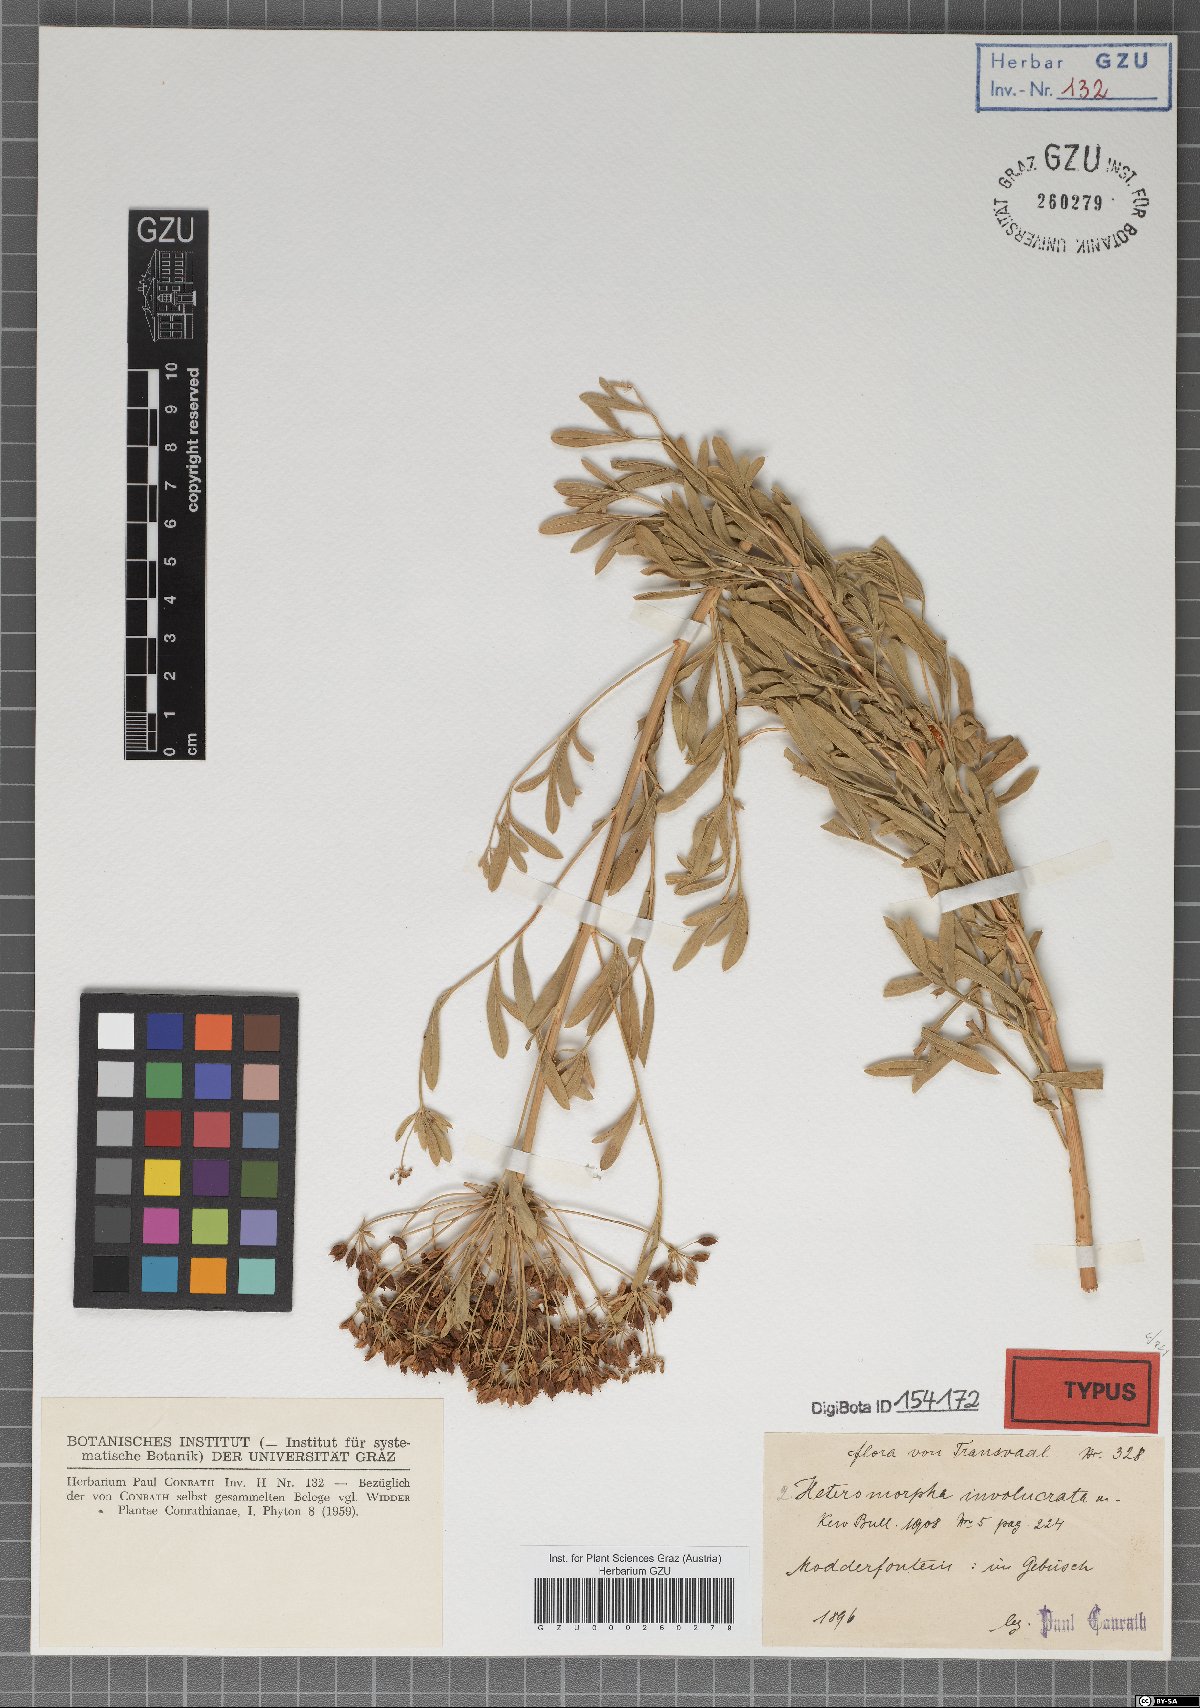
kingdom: Plantae
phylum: Tracheophyta
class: Magnoliopsida
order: Apiales
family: Apiaceae
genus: Heteromorpha
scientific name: Heteromorpha involucrata
